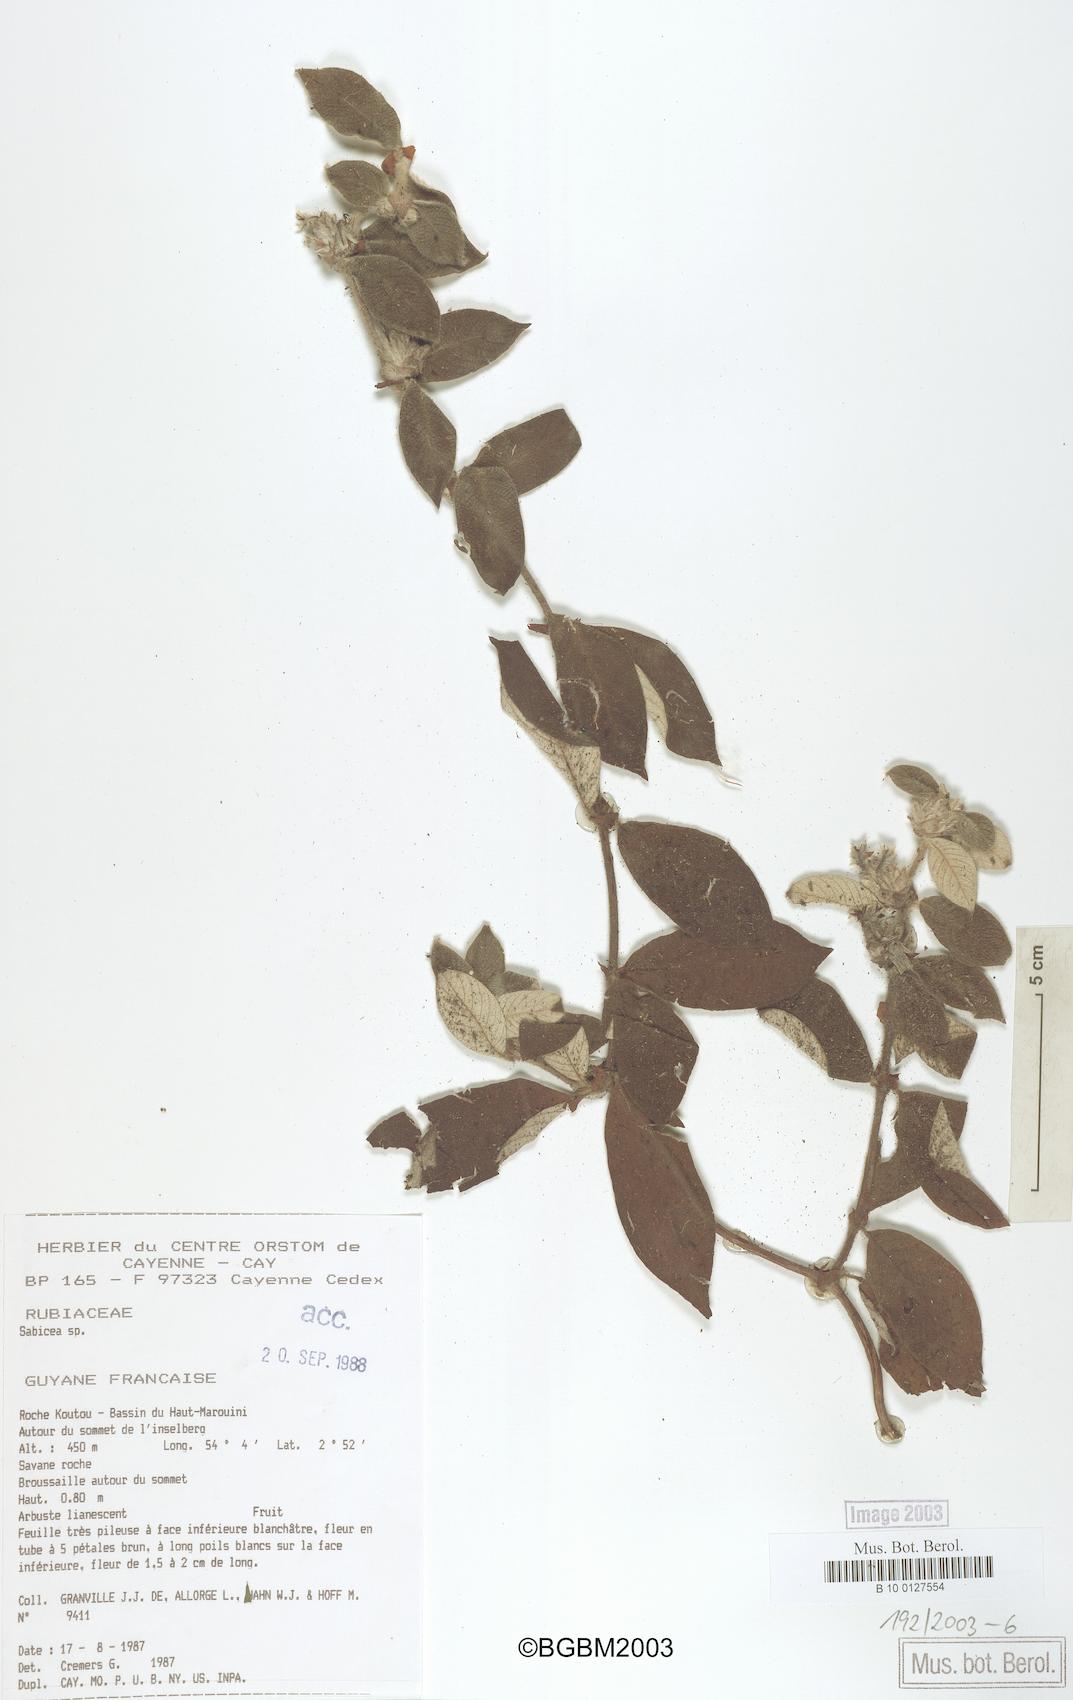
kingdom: Plantae
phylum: Tracheophyta
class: Magnoliopsida
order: Gentianales
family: Rubiaceae
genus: Sabicea
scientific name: Sabicea
